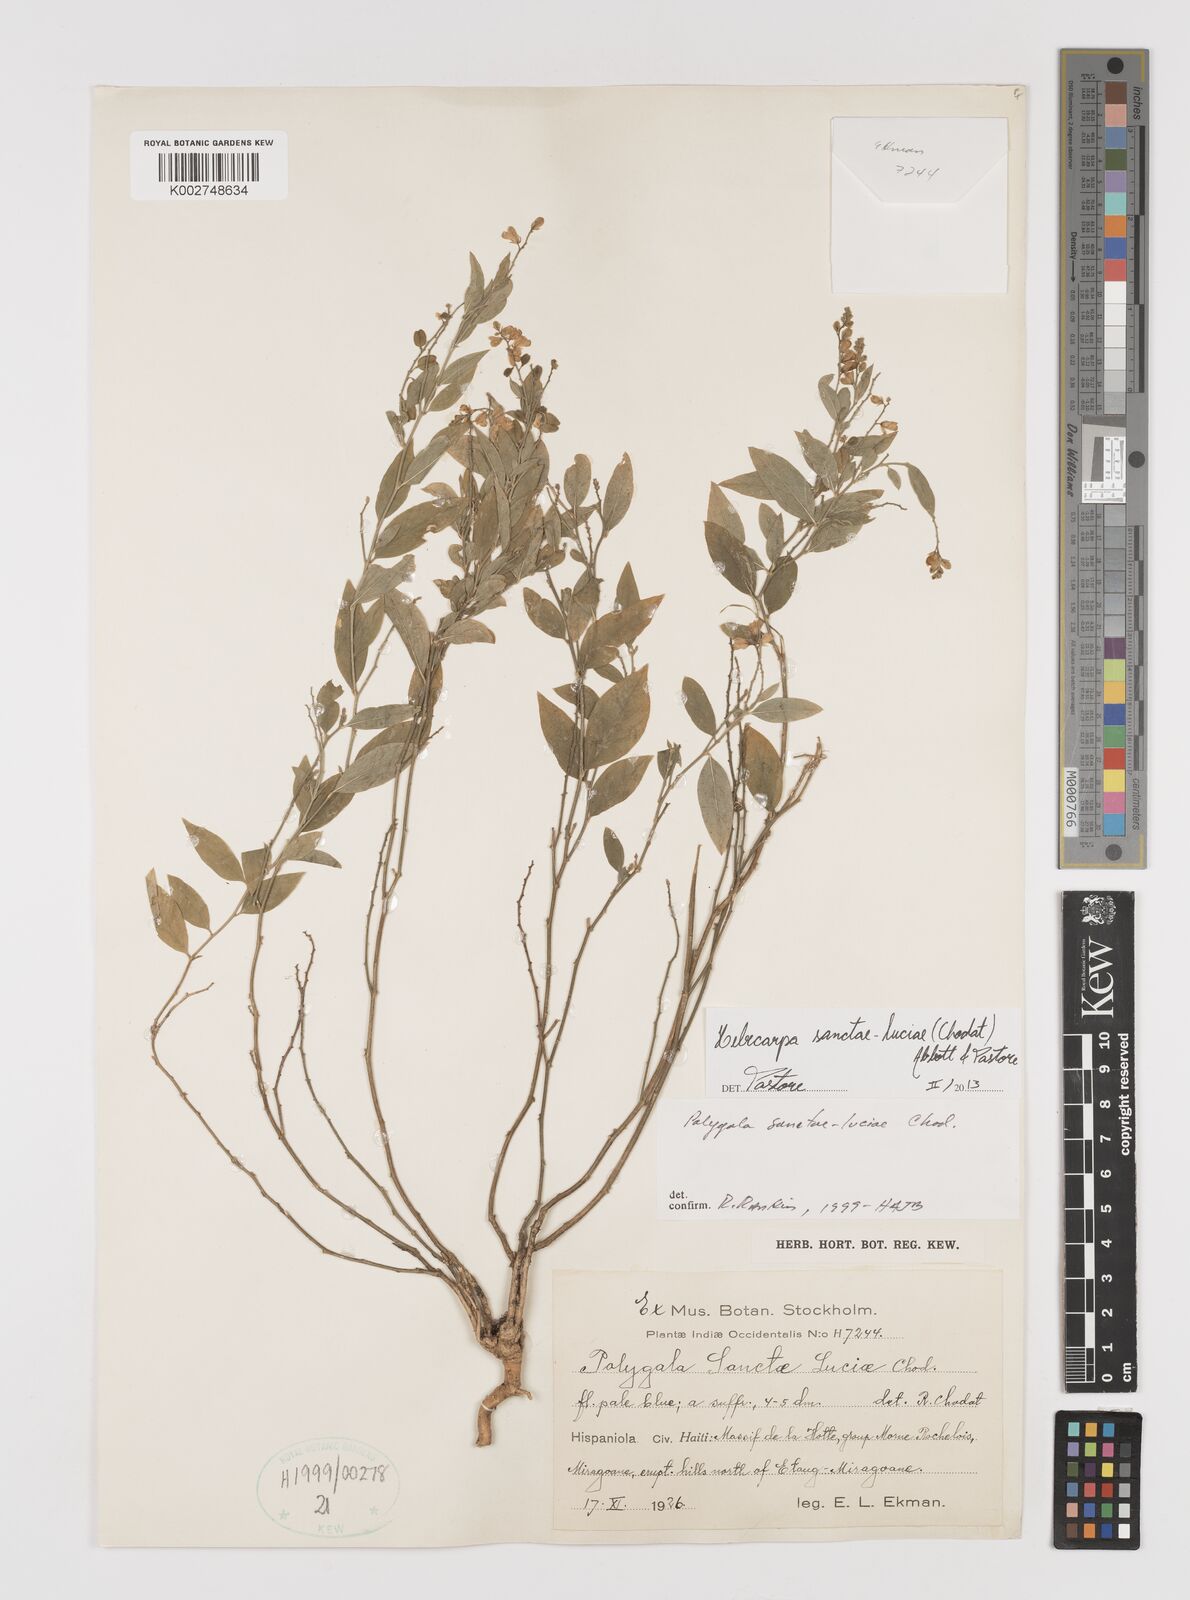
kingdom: Plantae
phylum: Tracheophyta
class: Magnoliopsida
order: Fabales
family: Polygalaceae
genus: Hebecarpa
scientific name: Hebecarpa
